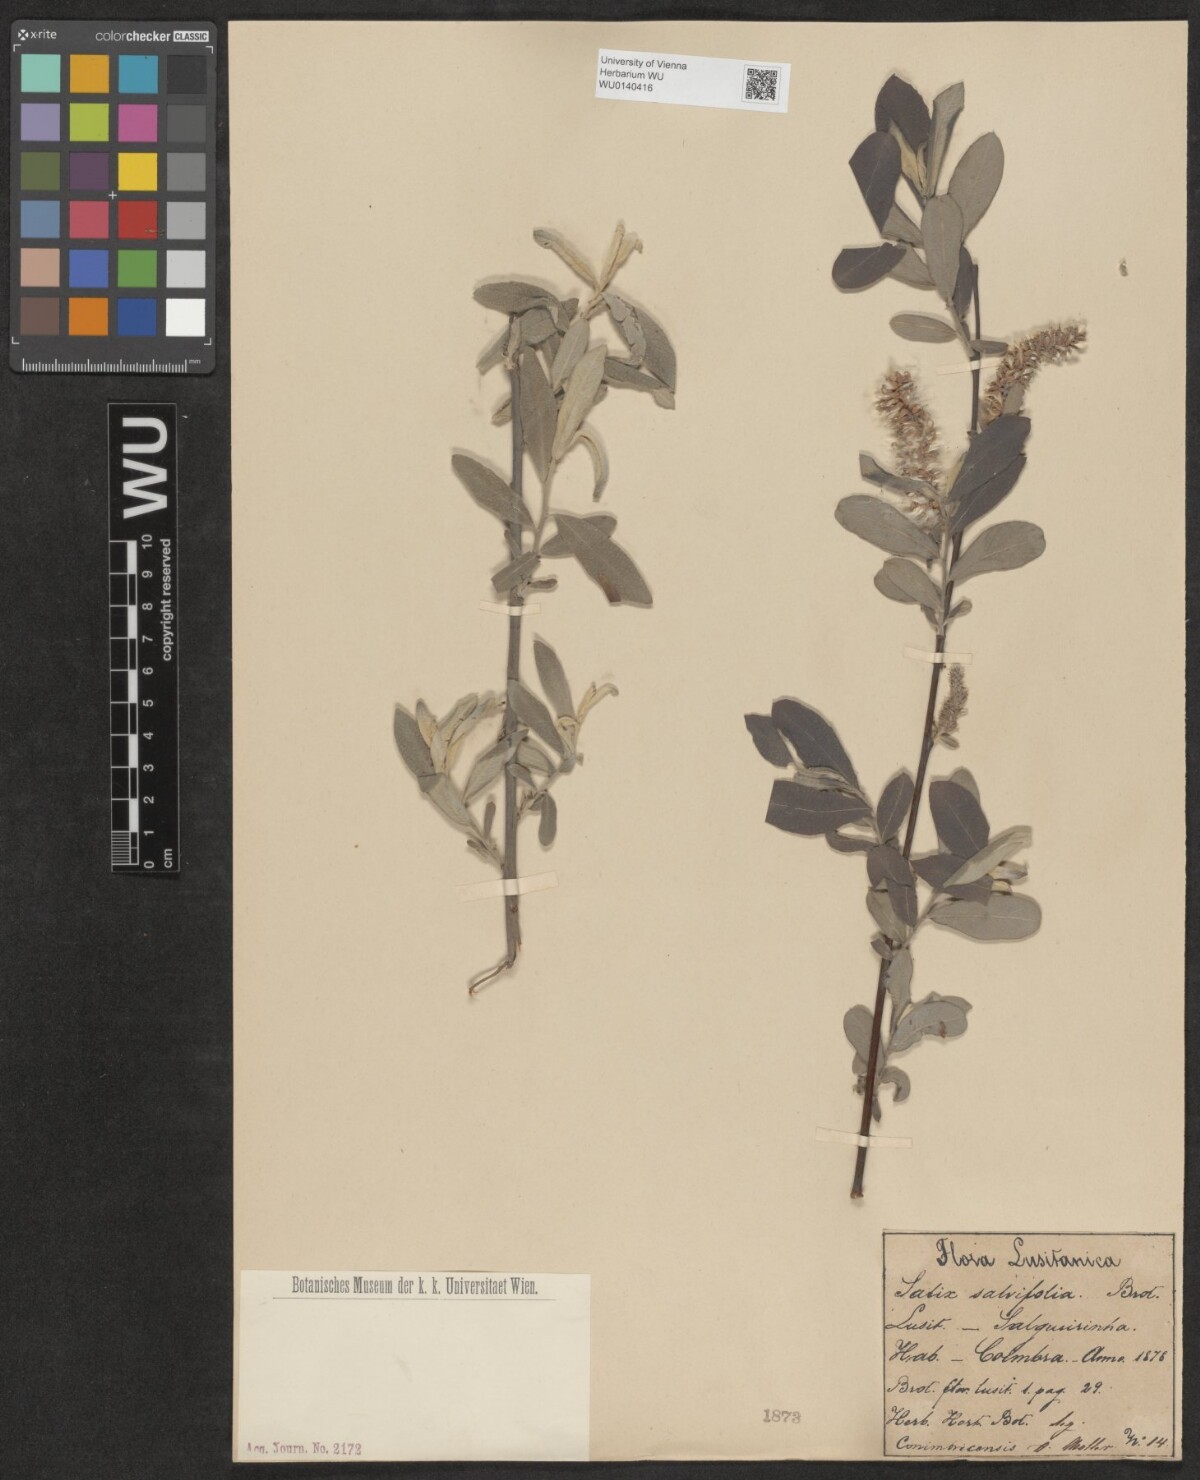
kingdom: Plantae
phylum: Tracheophyta
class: Magnoliopsida
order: Malpighiales
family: Salicaceae
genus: Salix
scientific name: Salix salviifolia
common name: Salvia-leaf willow
